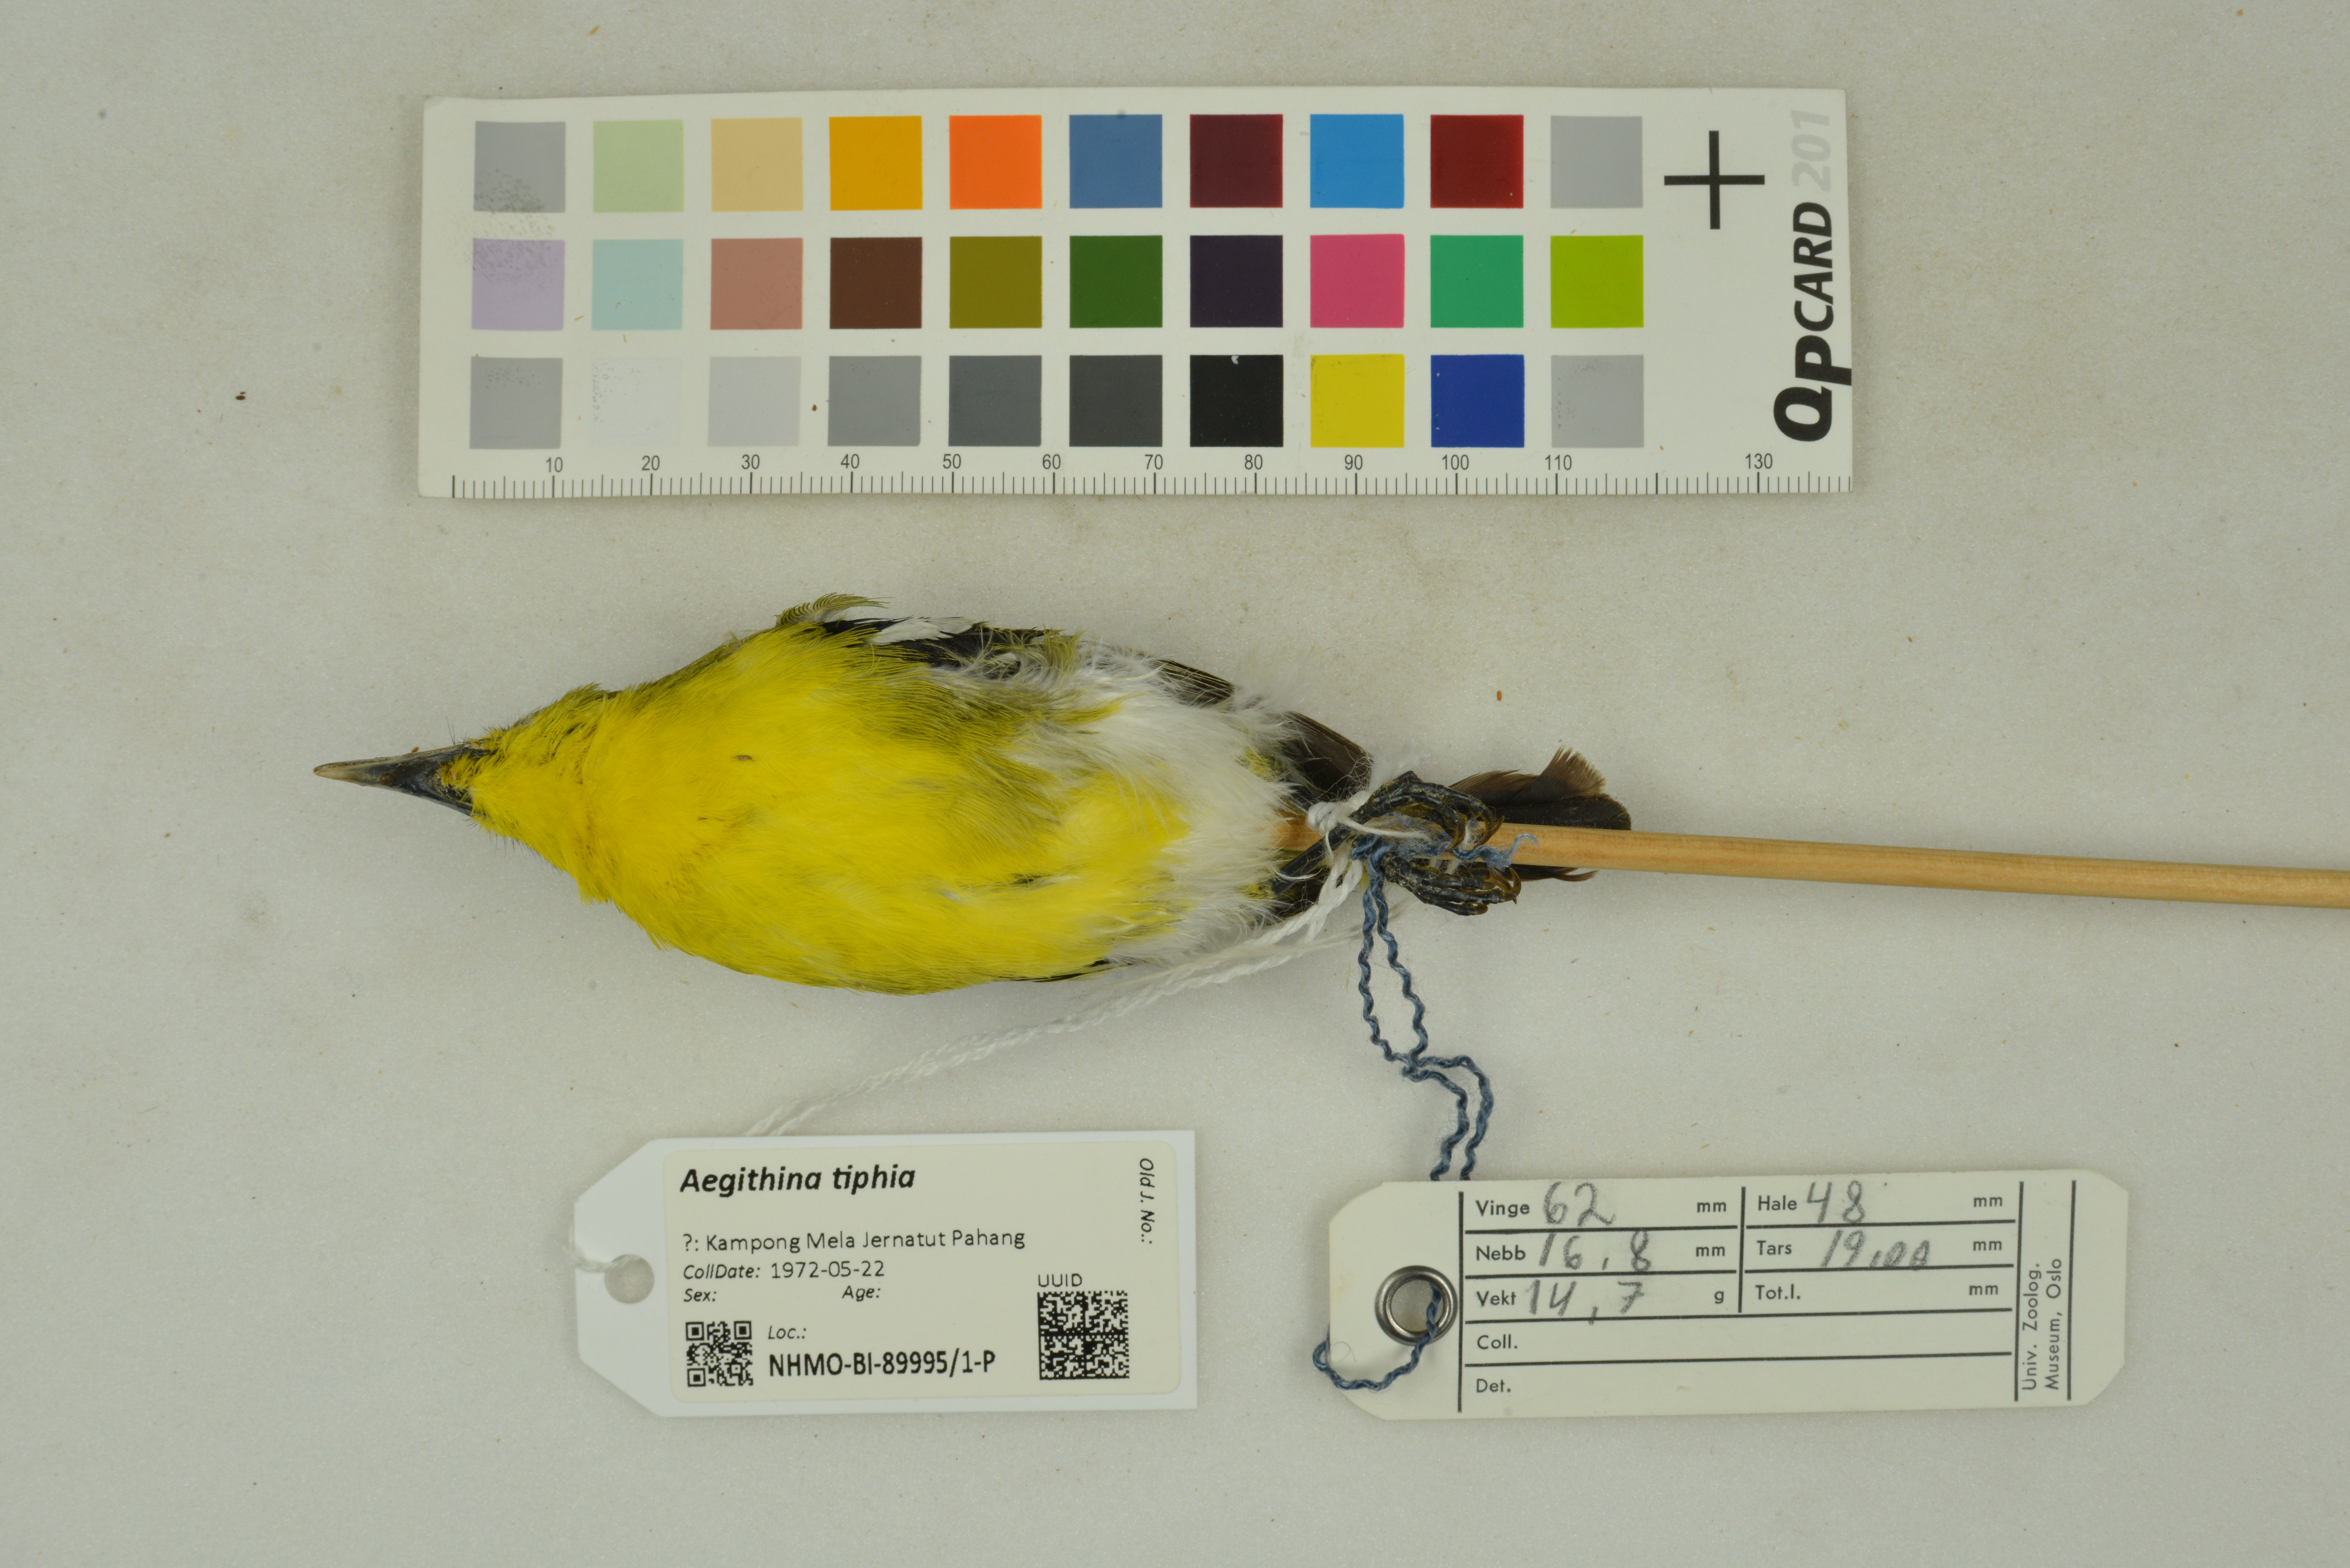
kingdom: Animalia
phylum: Chordata
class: Aves
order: Passeriformes
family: Aegithinidae
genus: Aegithina
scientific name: Aegithina tiphia
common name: Common iora
